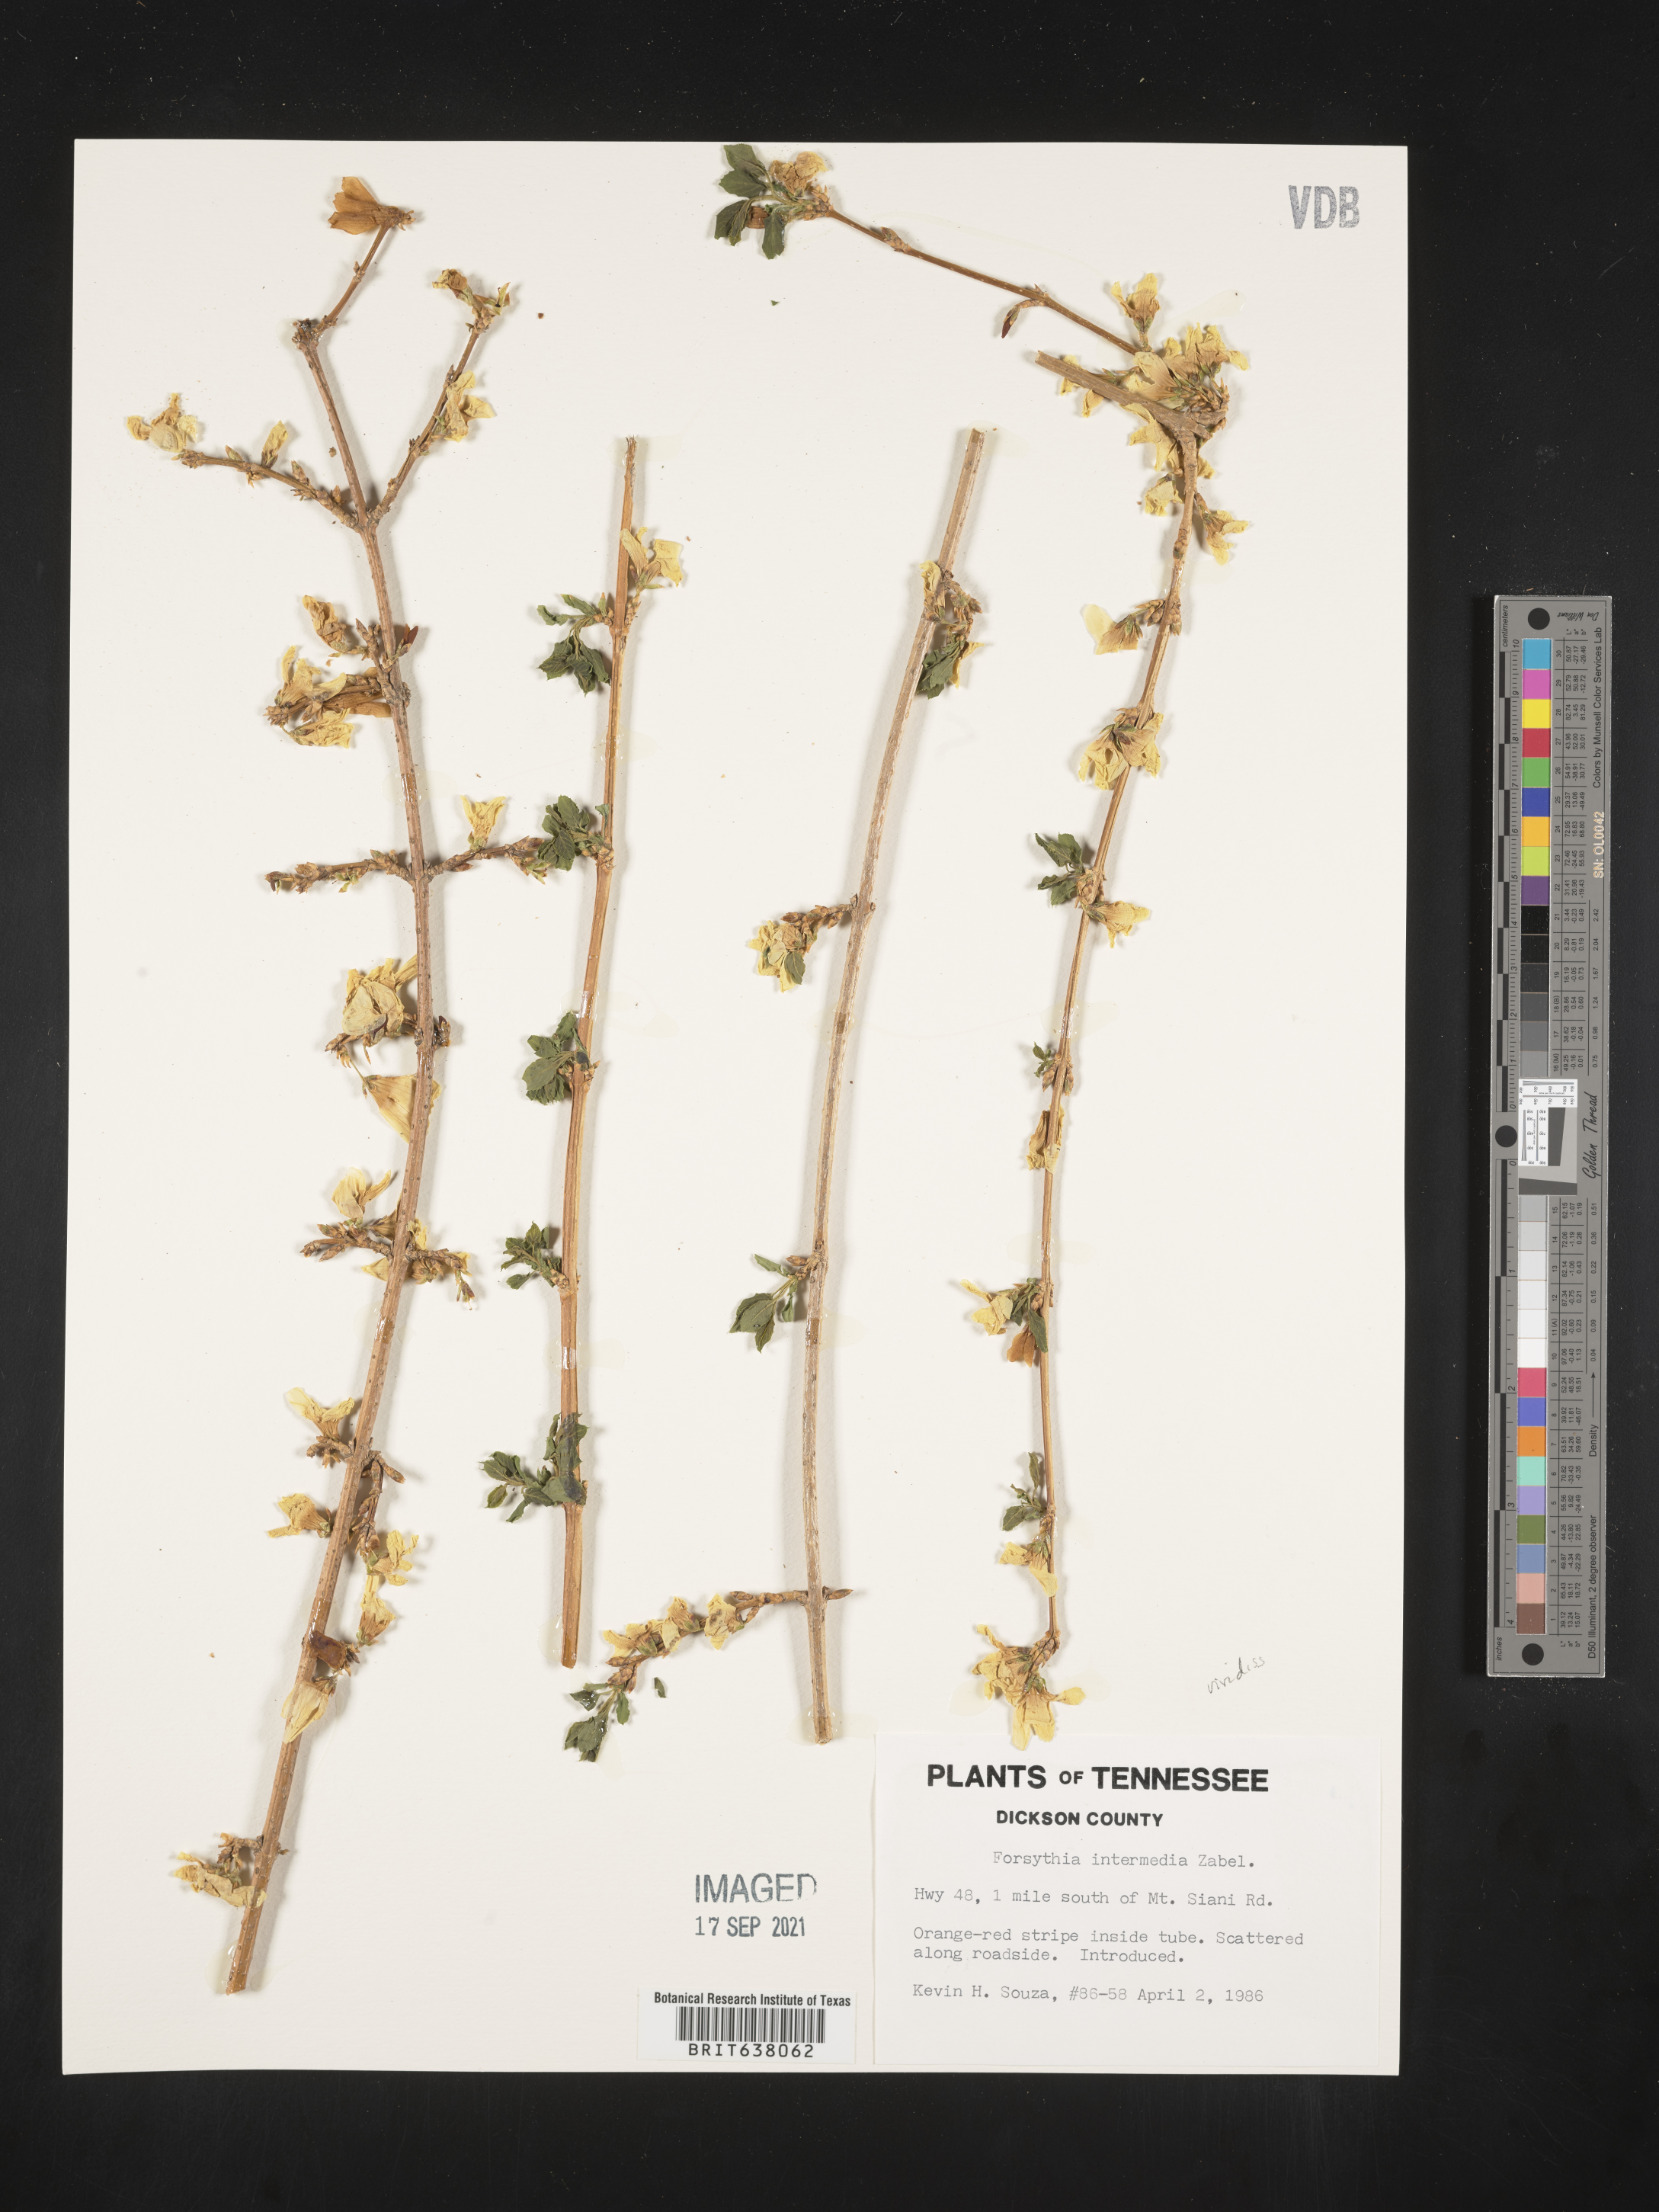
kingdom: Plantae
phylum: Tracheophyta
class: Magnoliopsida
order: Lamiales
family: Oleaceae
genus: Forsythia
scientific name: Forsythia
